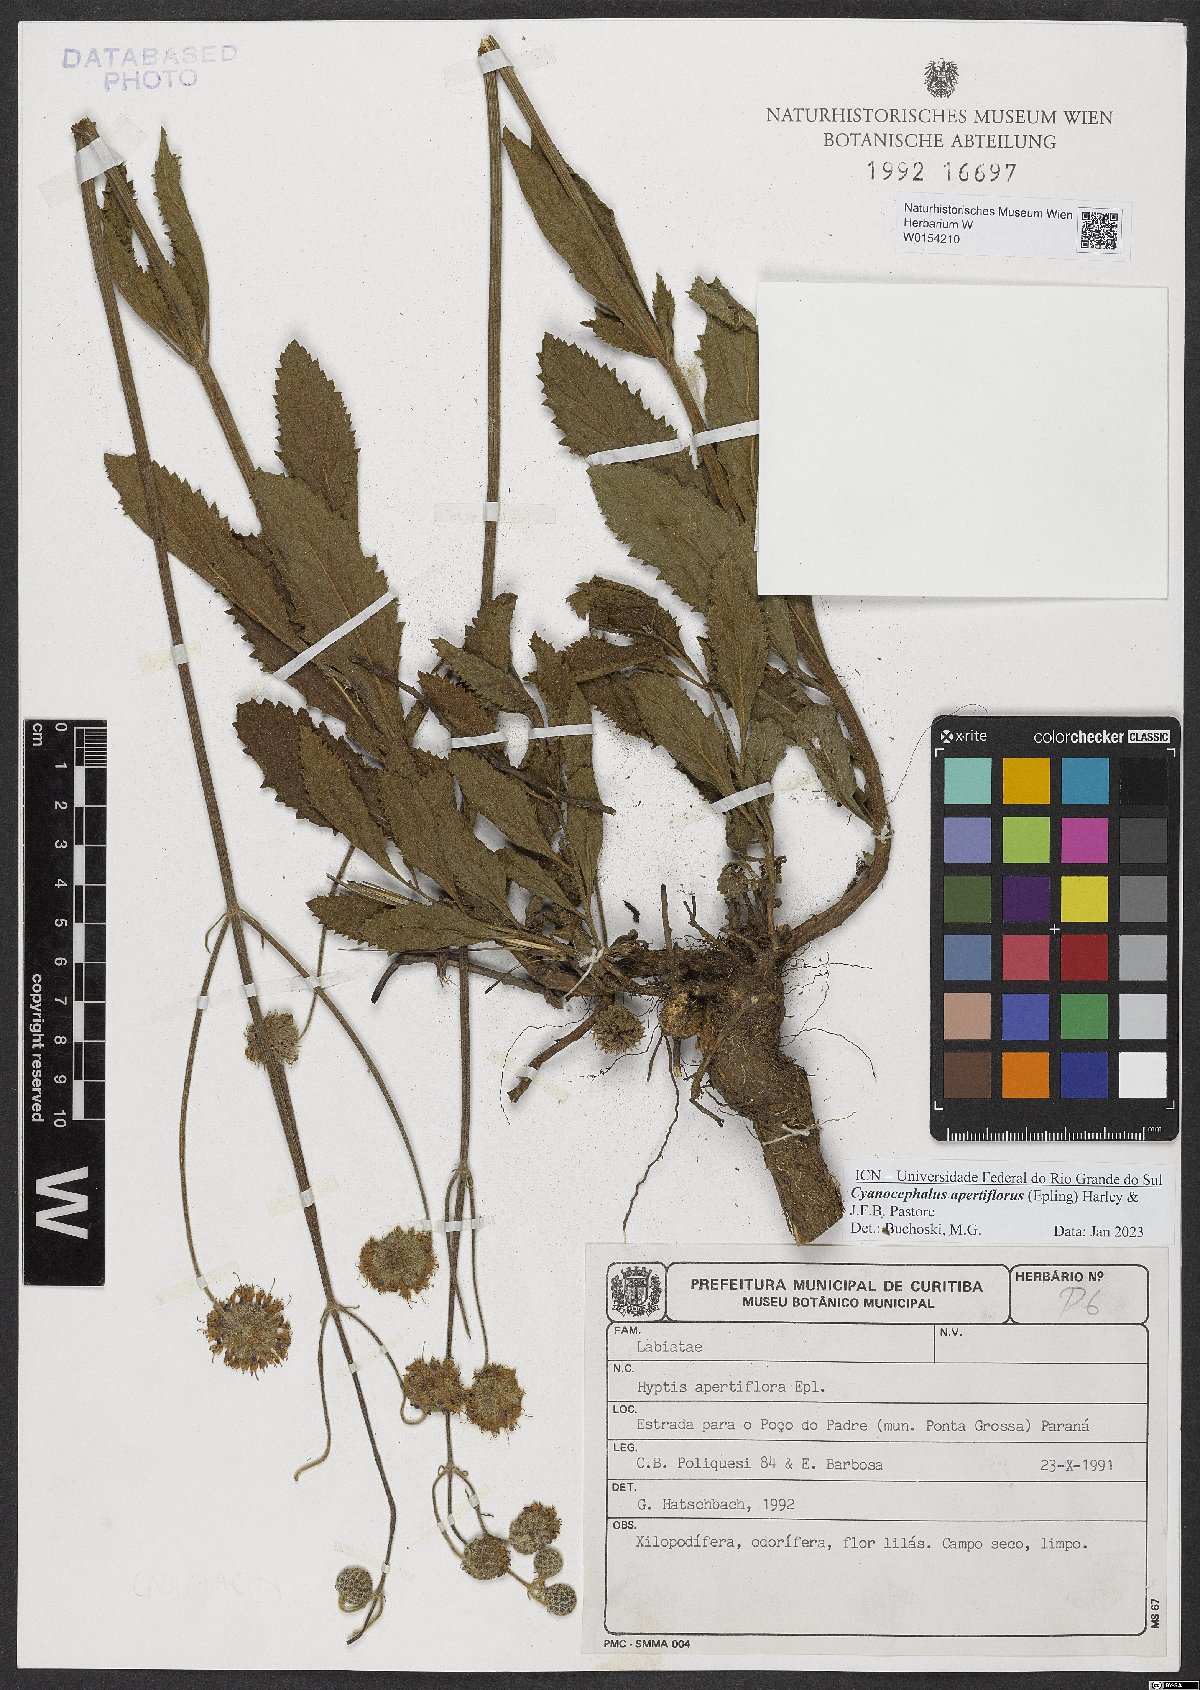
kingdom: Plantae
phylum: Tracheophyta
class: Magnoliopsida
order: Lamiales
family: Lamiaceae
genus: Cyanocephalus
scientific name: Cyanocephalus apertiflorus
